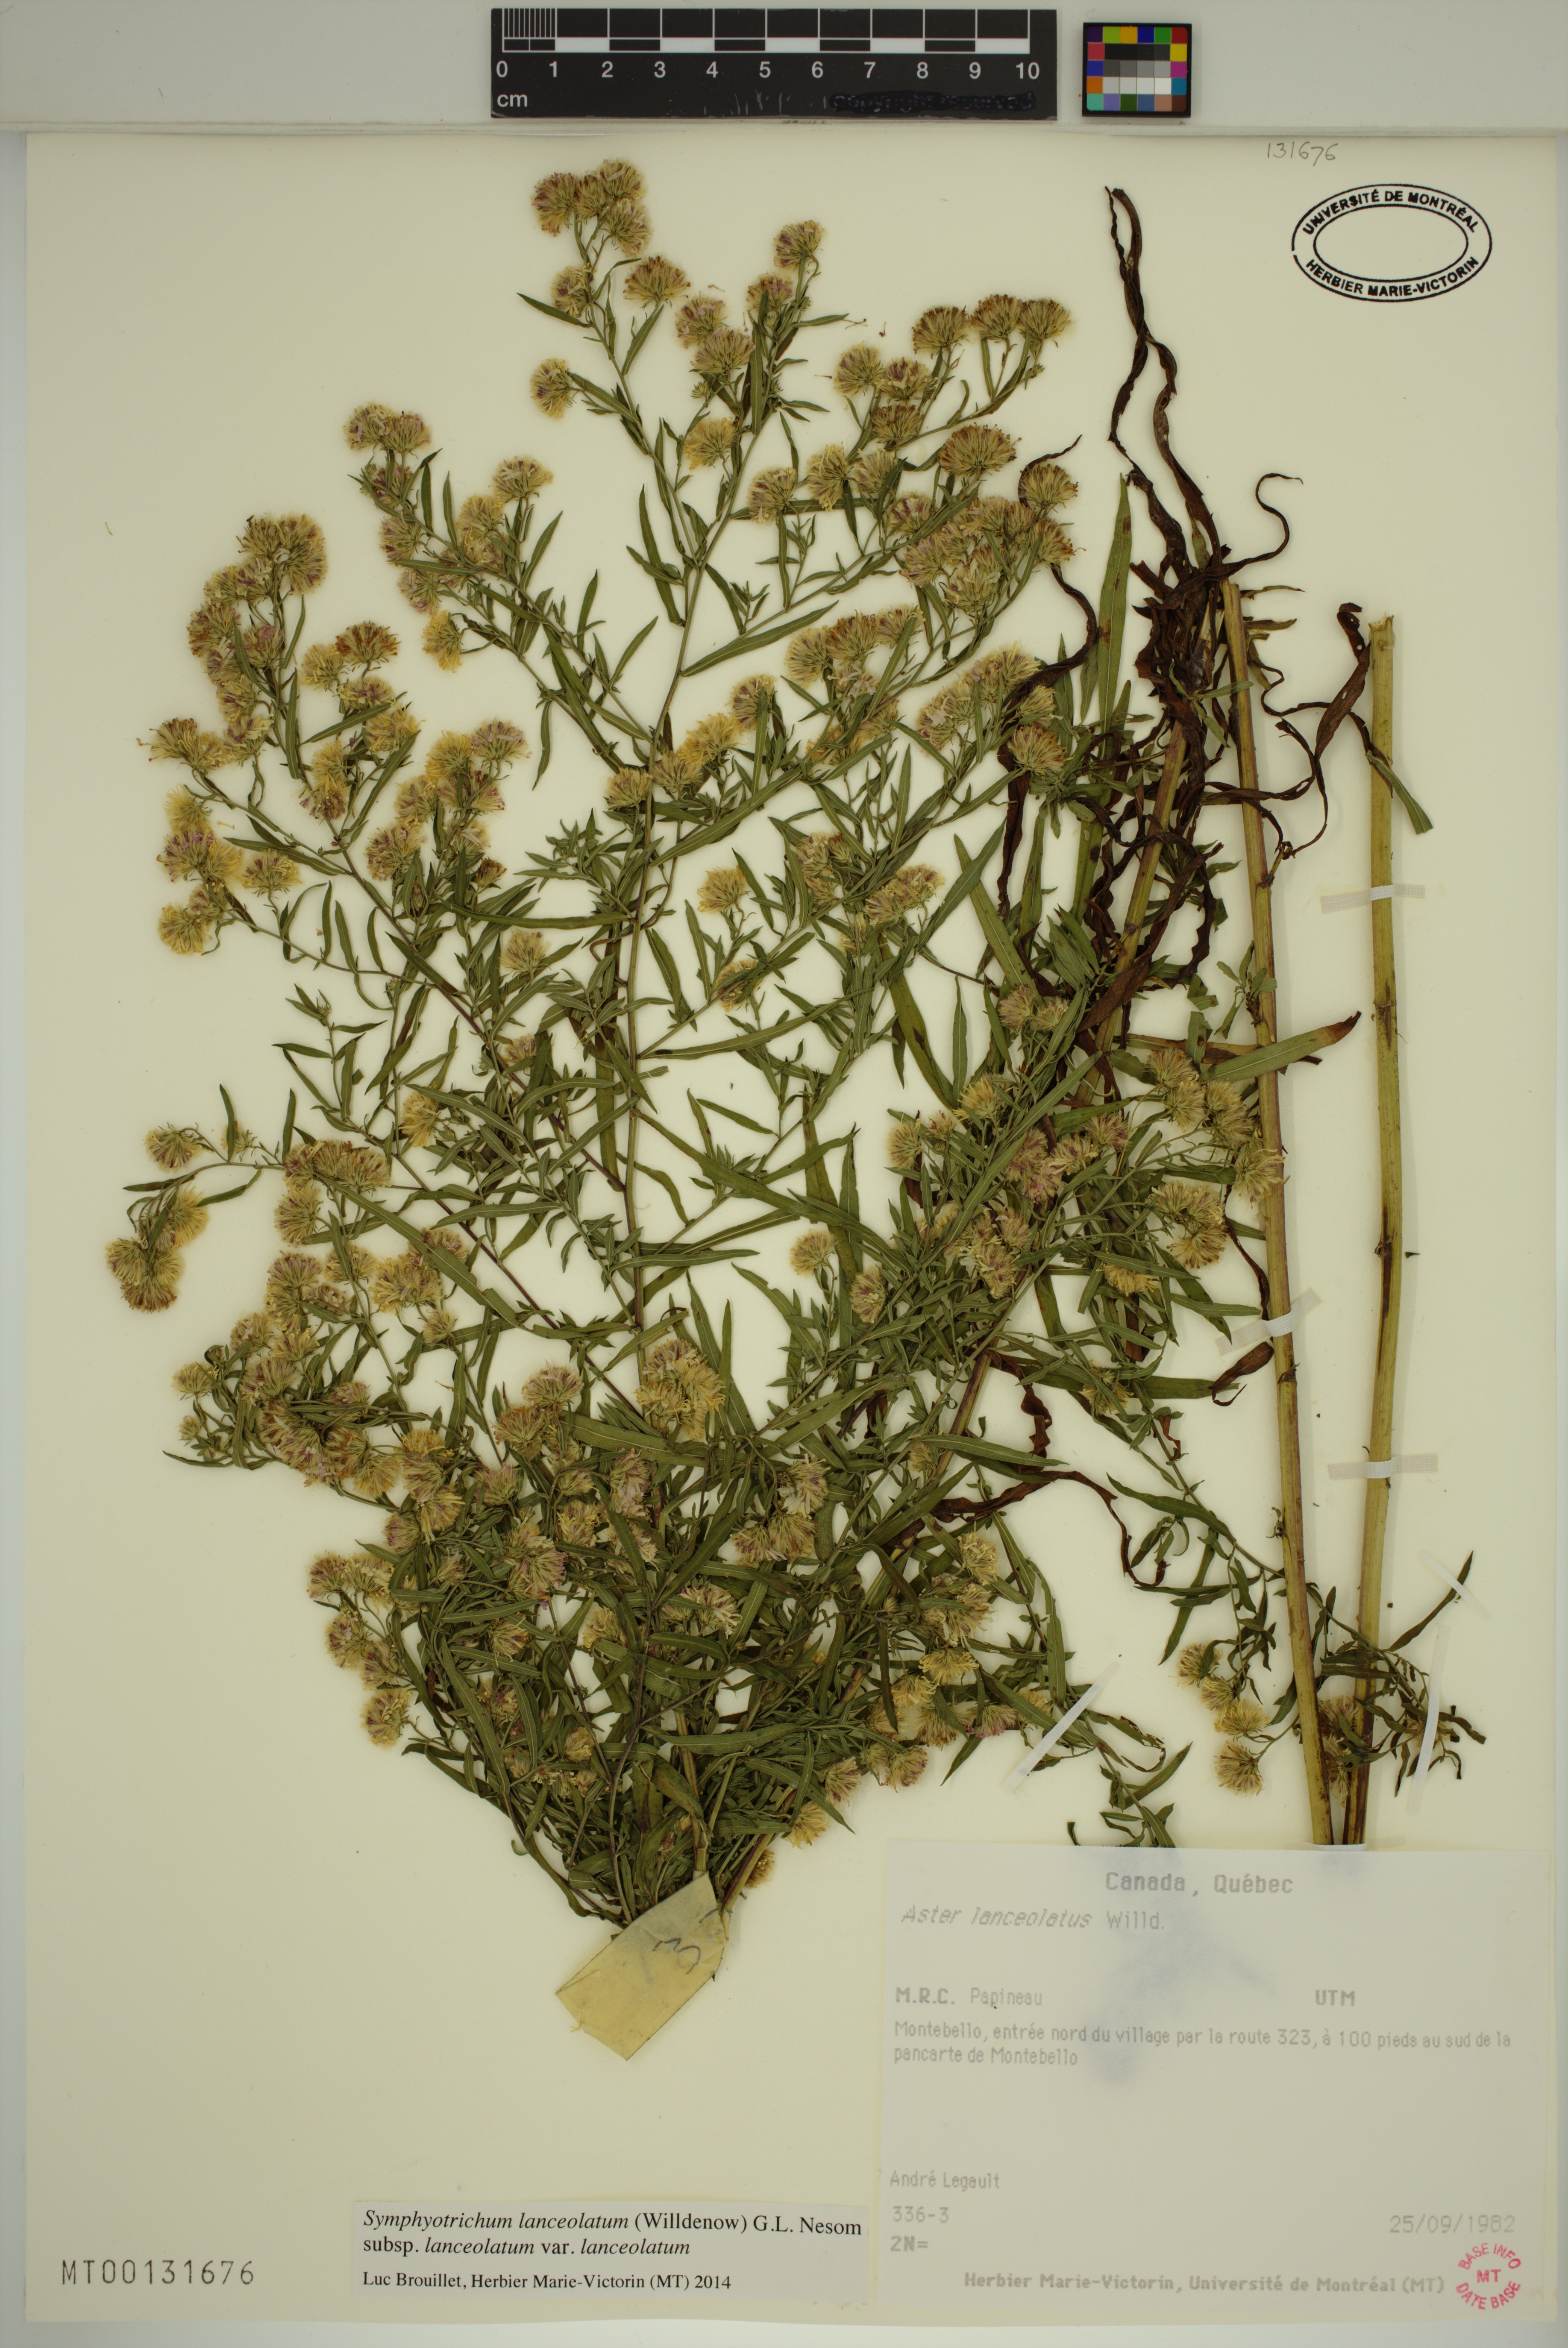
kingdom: Plantae
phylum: Tracheophyta
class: Magnoliopsida
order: Asterales
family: Asteraceae
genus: Symphyotrichum
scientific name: Symphyotrichum lanceolatum
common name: Panicled aster
